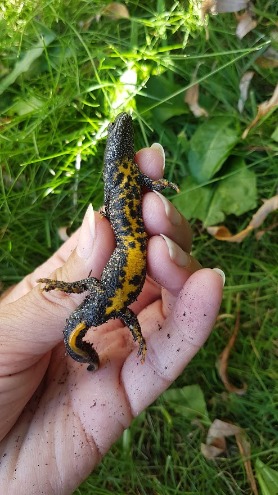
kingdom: Animalia
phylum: Chordata
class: Amphibia
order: Caudata
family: Salamandridae
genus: Triturus
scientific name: Triturus cristatus
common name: Stor vandsalamander
